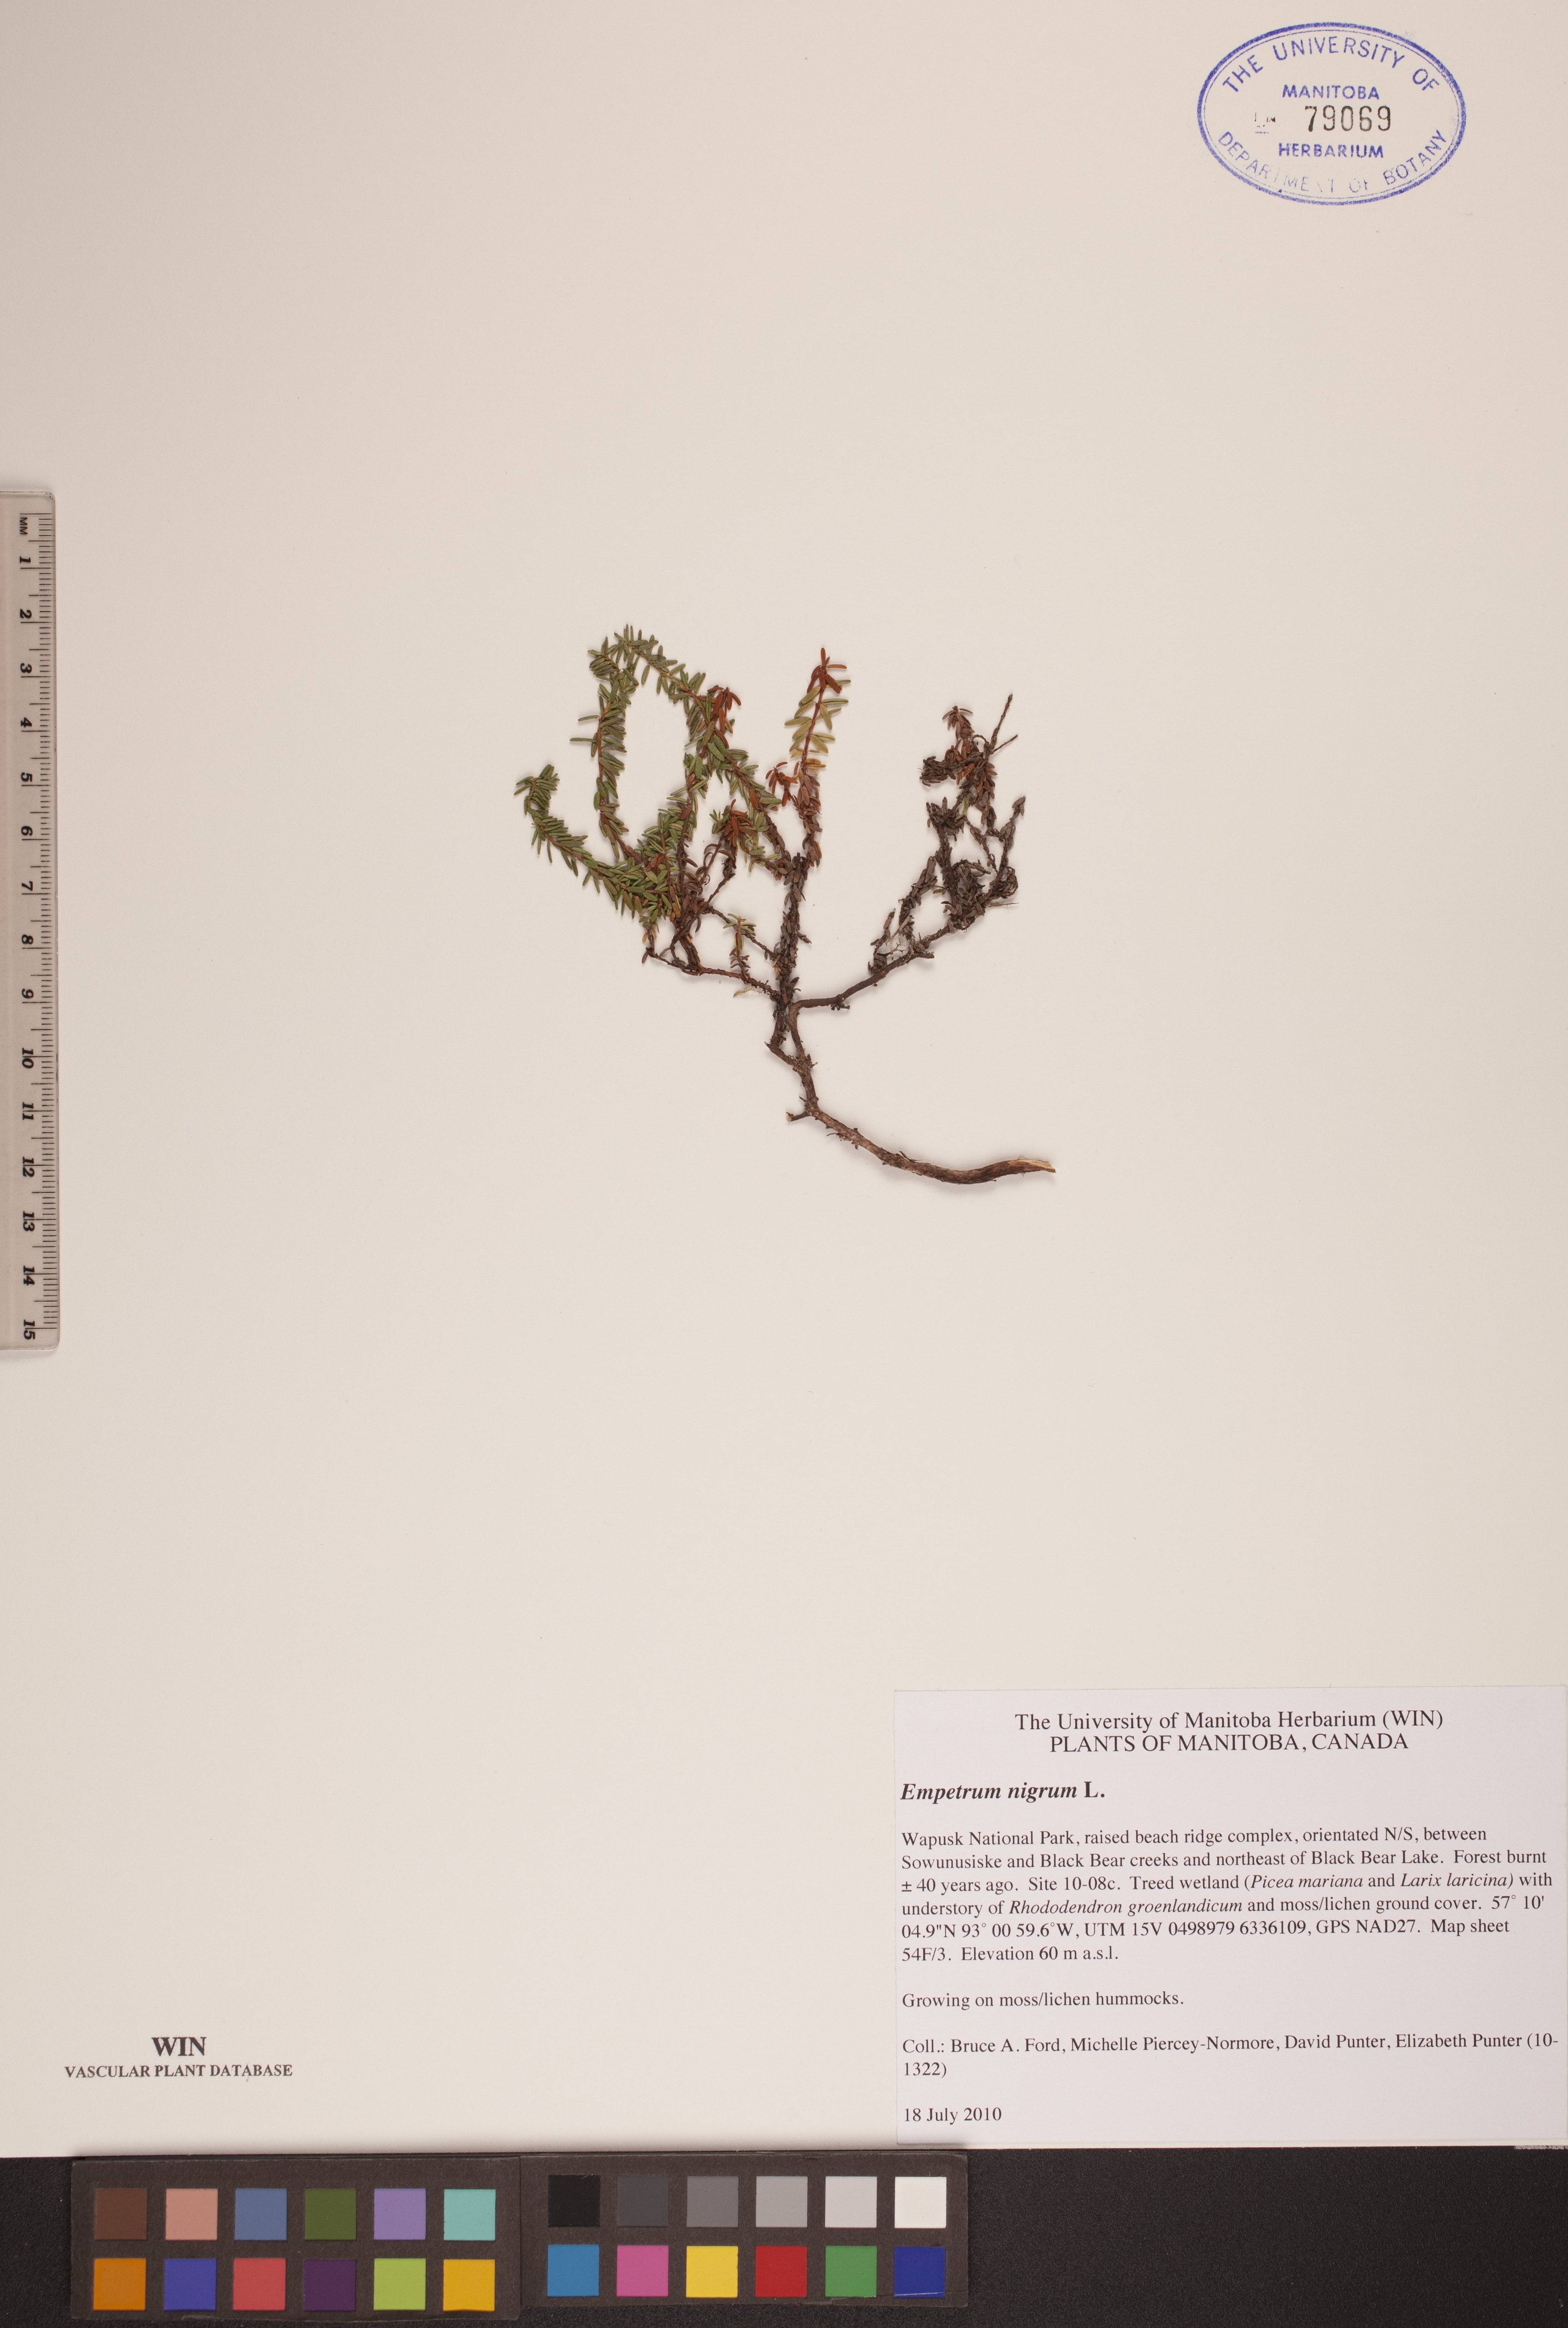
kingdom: Plantae
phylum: Tracheophyta
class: Magnoliopsida
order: Ericales
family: Ericaceae
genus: Empetrum
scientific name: Empetrum nigrum
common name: Black crowberry
